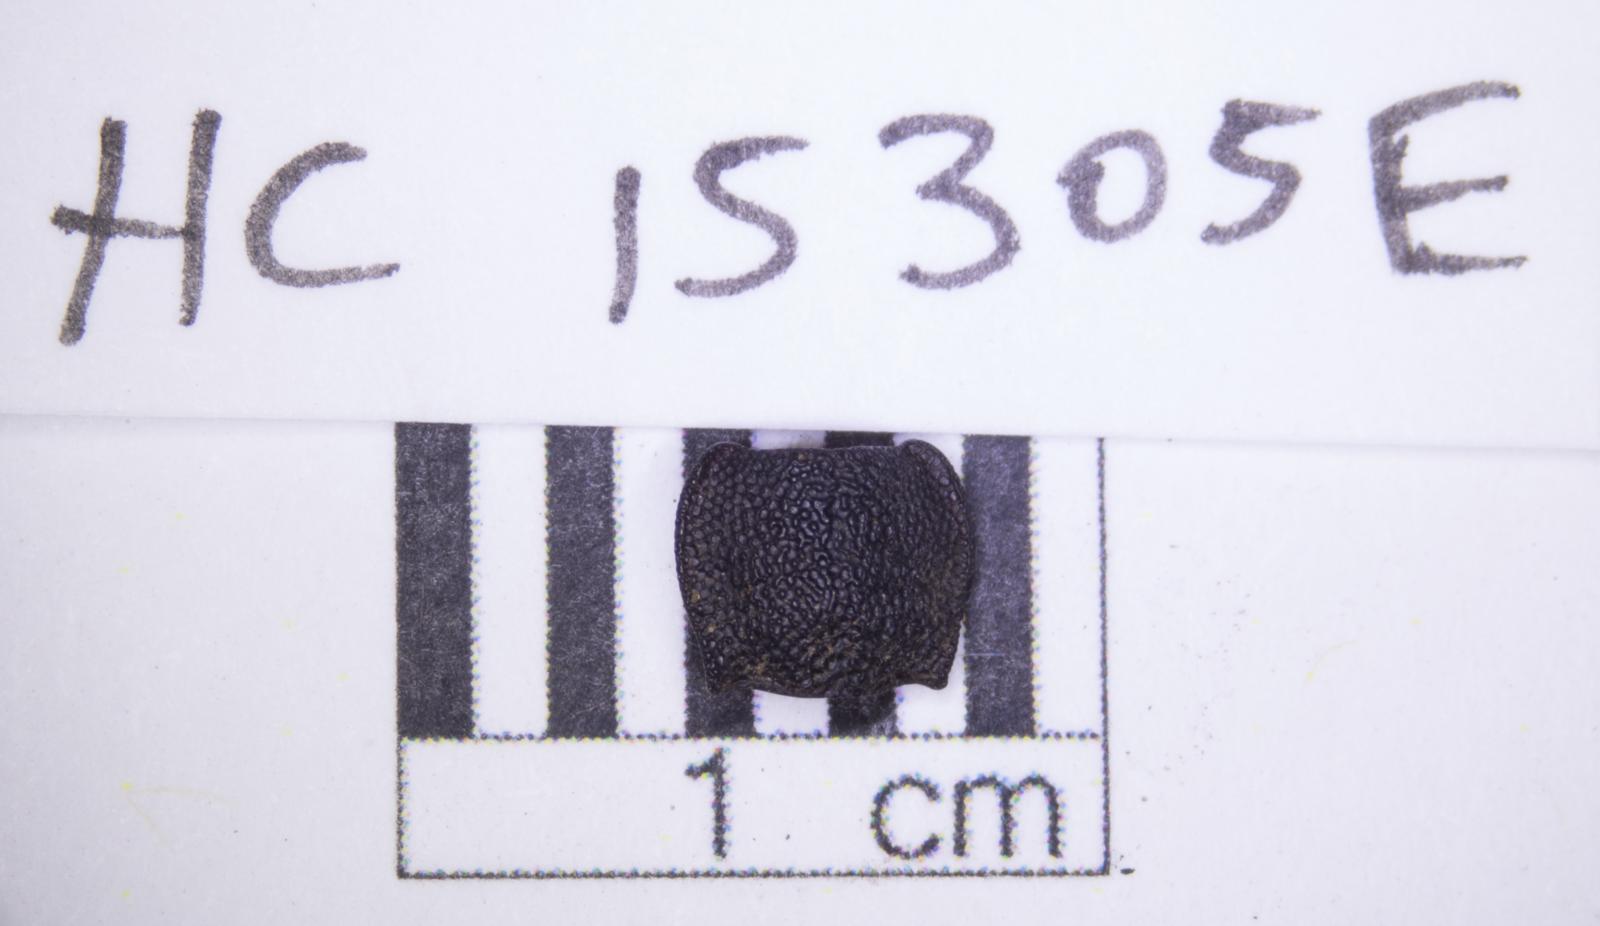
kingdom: Animalia
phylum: Arthropoda
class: Insecta
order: Coleoptera
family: Tenebrionidae
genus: Nyctoporis
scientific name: Nyctoporis carinata
